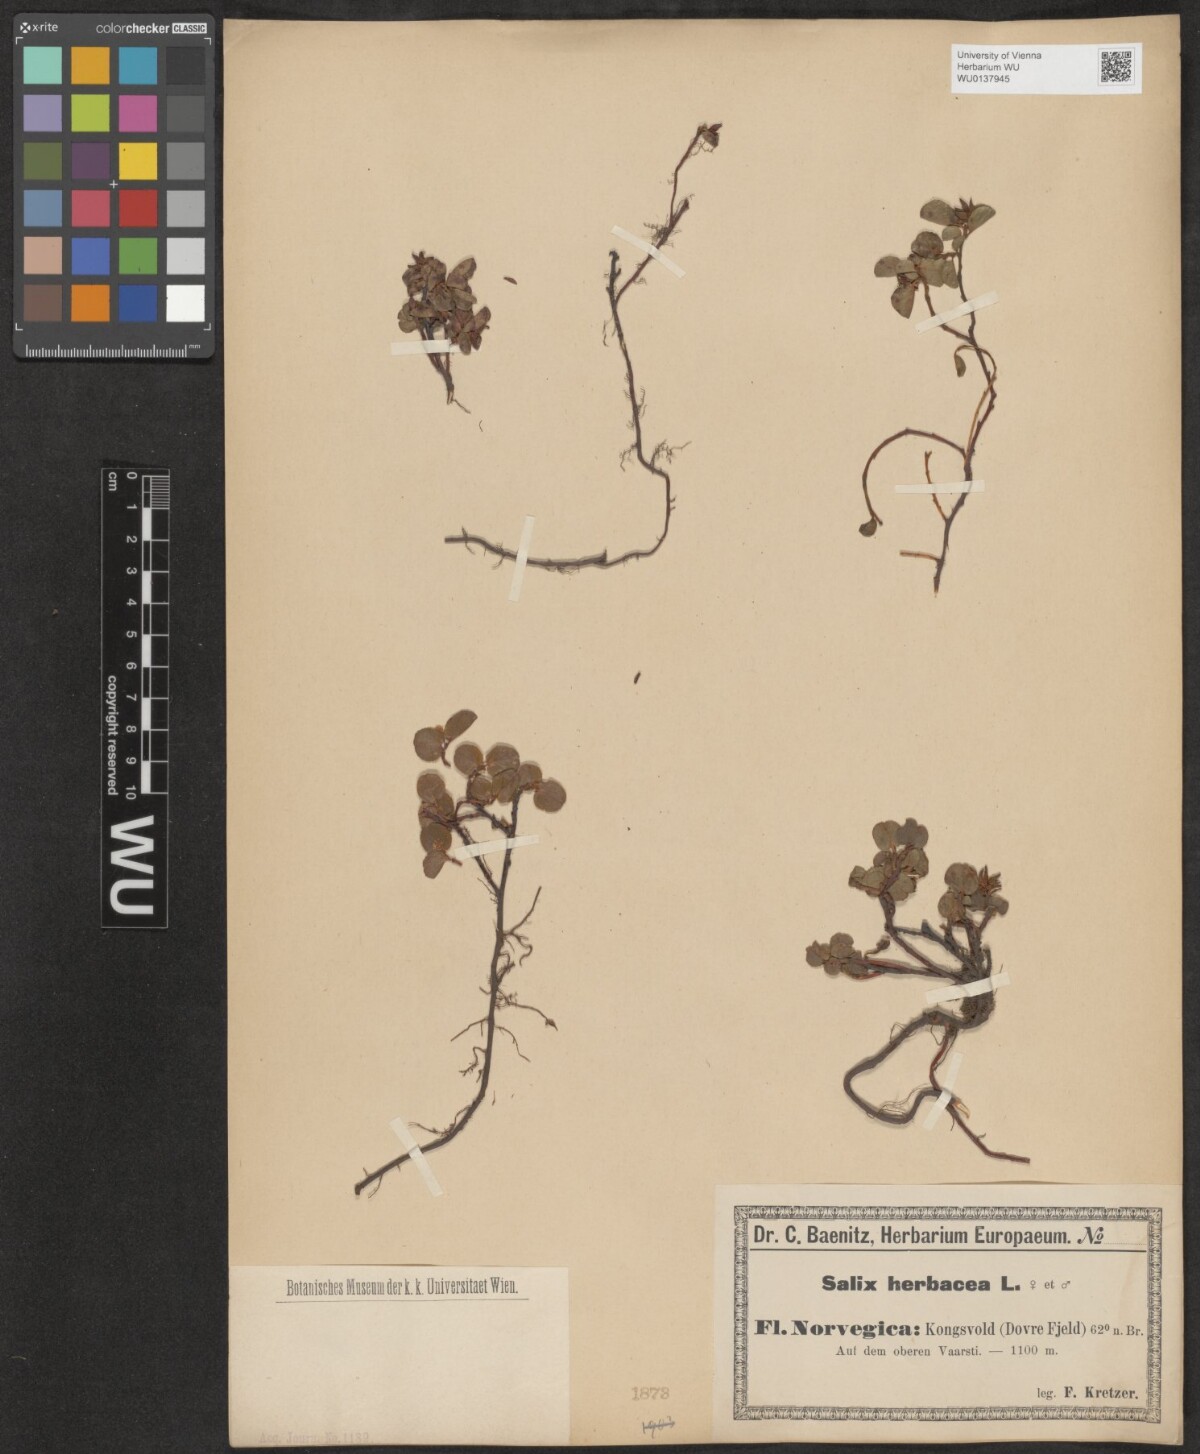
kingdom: Plantae
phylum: Tracheophyta
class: Magnoliopsida
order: Malpighiales
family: Salicaceae
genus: Salix
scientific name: Salix herbacea
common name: Dwarf willow
